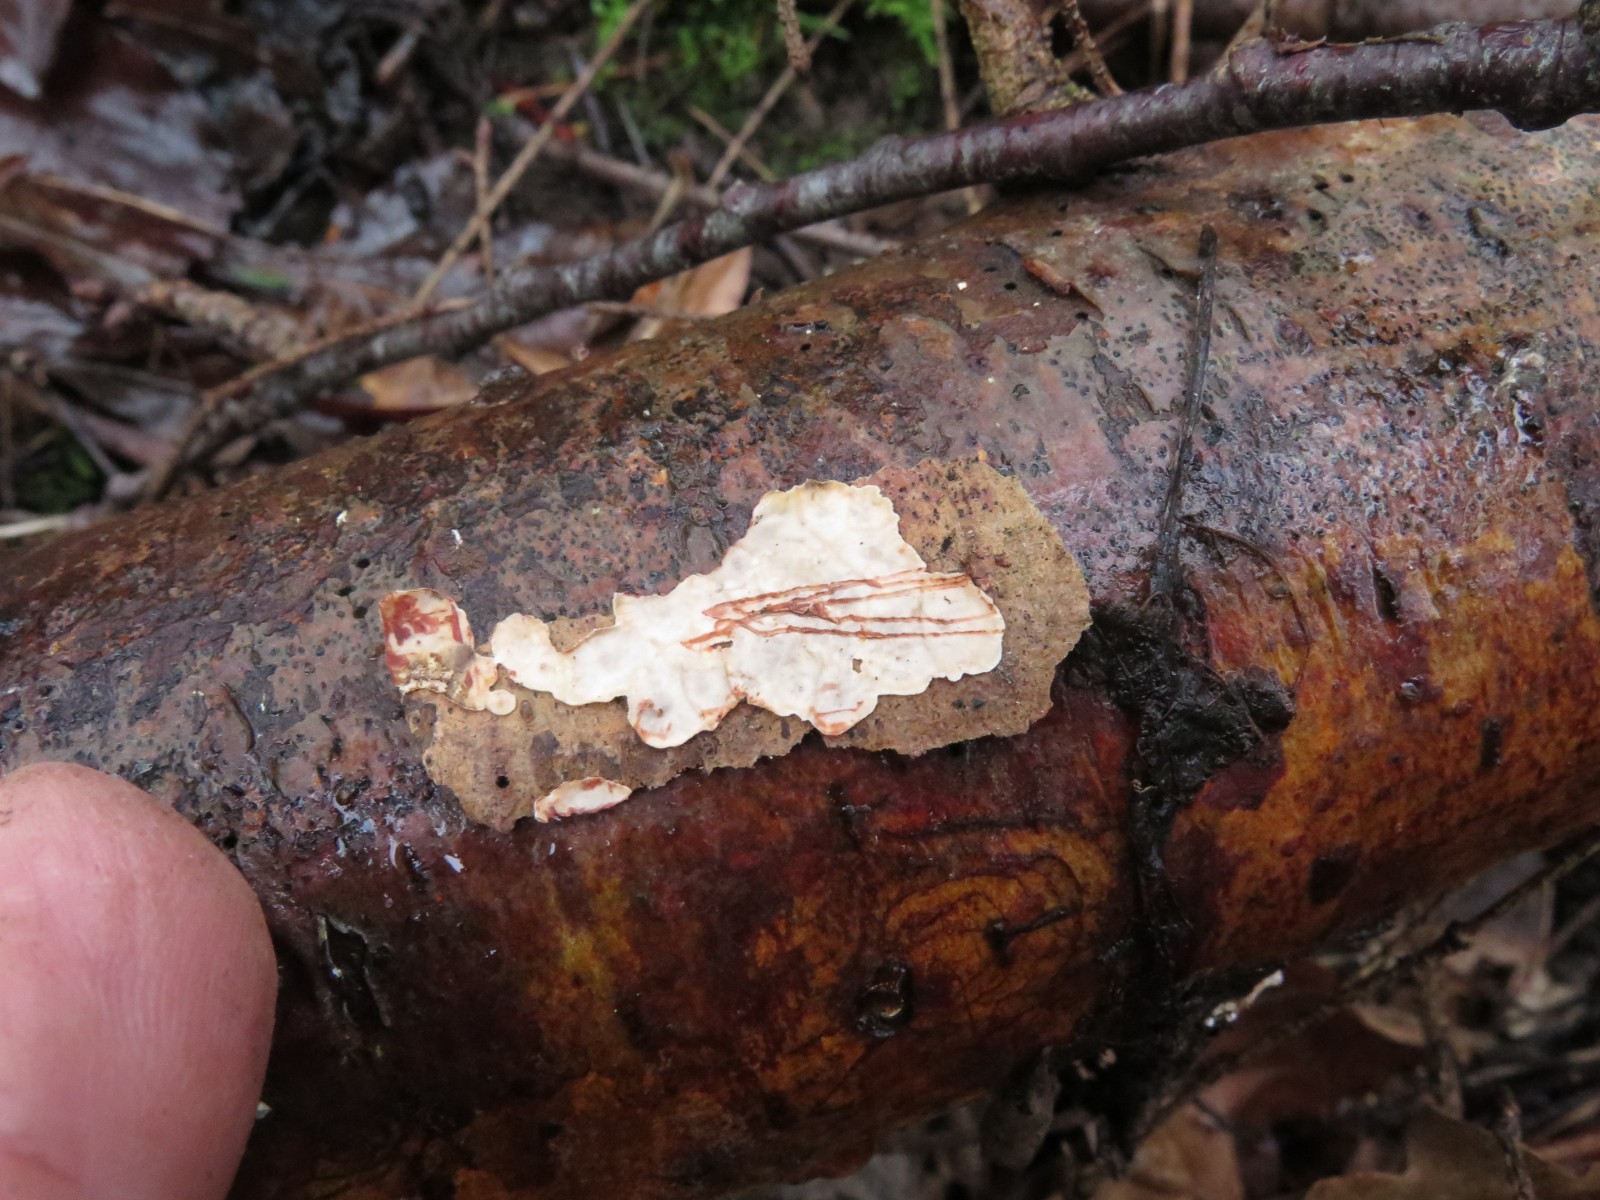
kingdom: Fungi
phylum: Basidiomycota
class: Agaricomycetes
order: Russulales
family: Stereaceae
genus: Stereum
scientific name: Stereum sanguinolentum
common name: blødende lædersvamp
